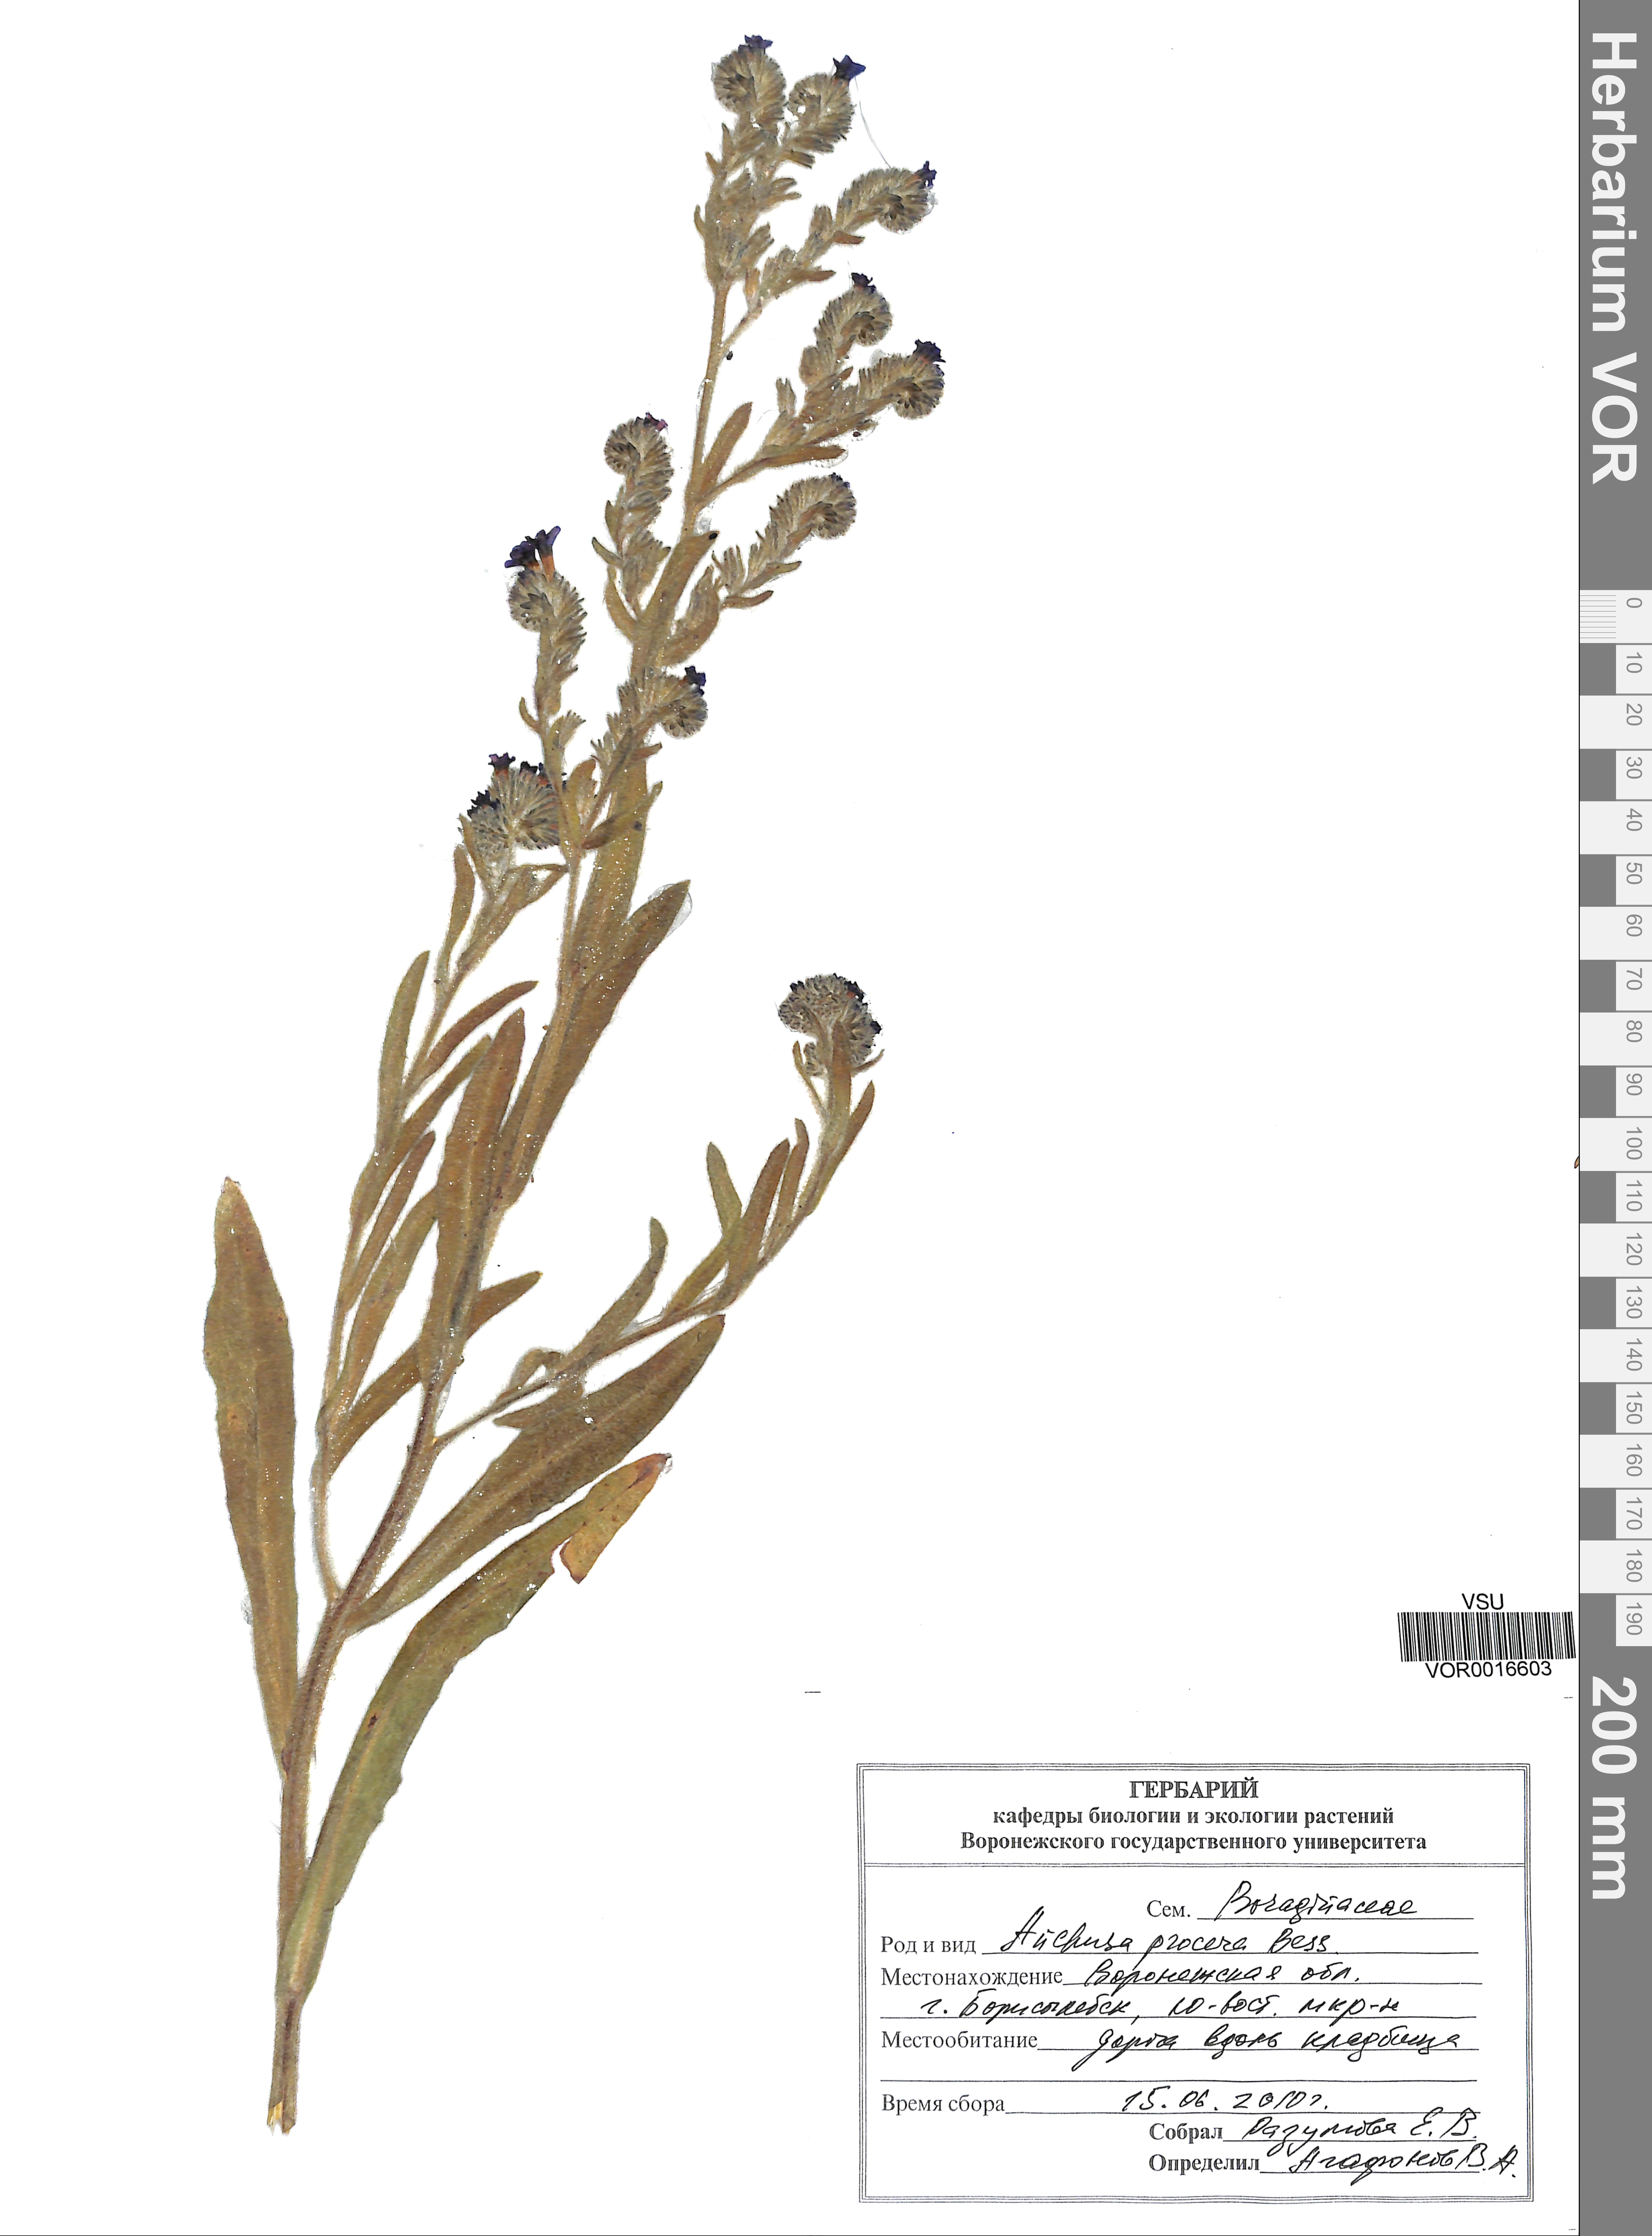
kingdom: Plantae
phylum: Tracheophyta
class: Magnoliopsida
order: Boraginales
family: Boraginaceae
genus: Anchusa
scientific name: Anchusa procera
